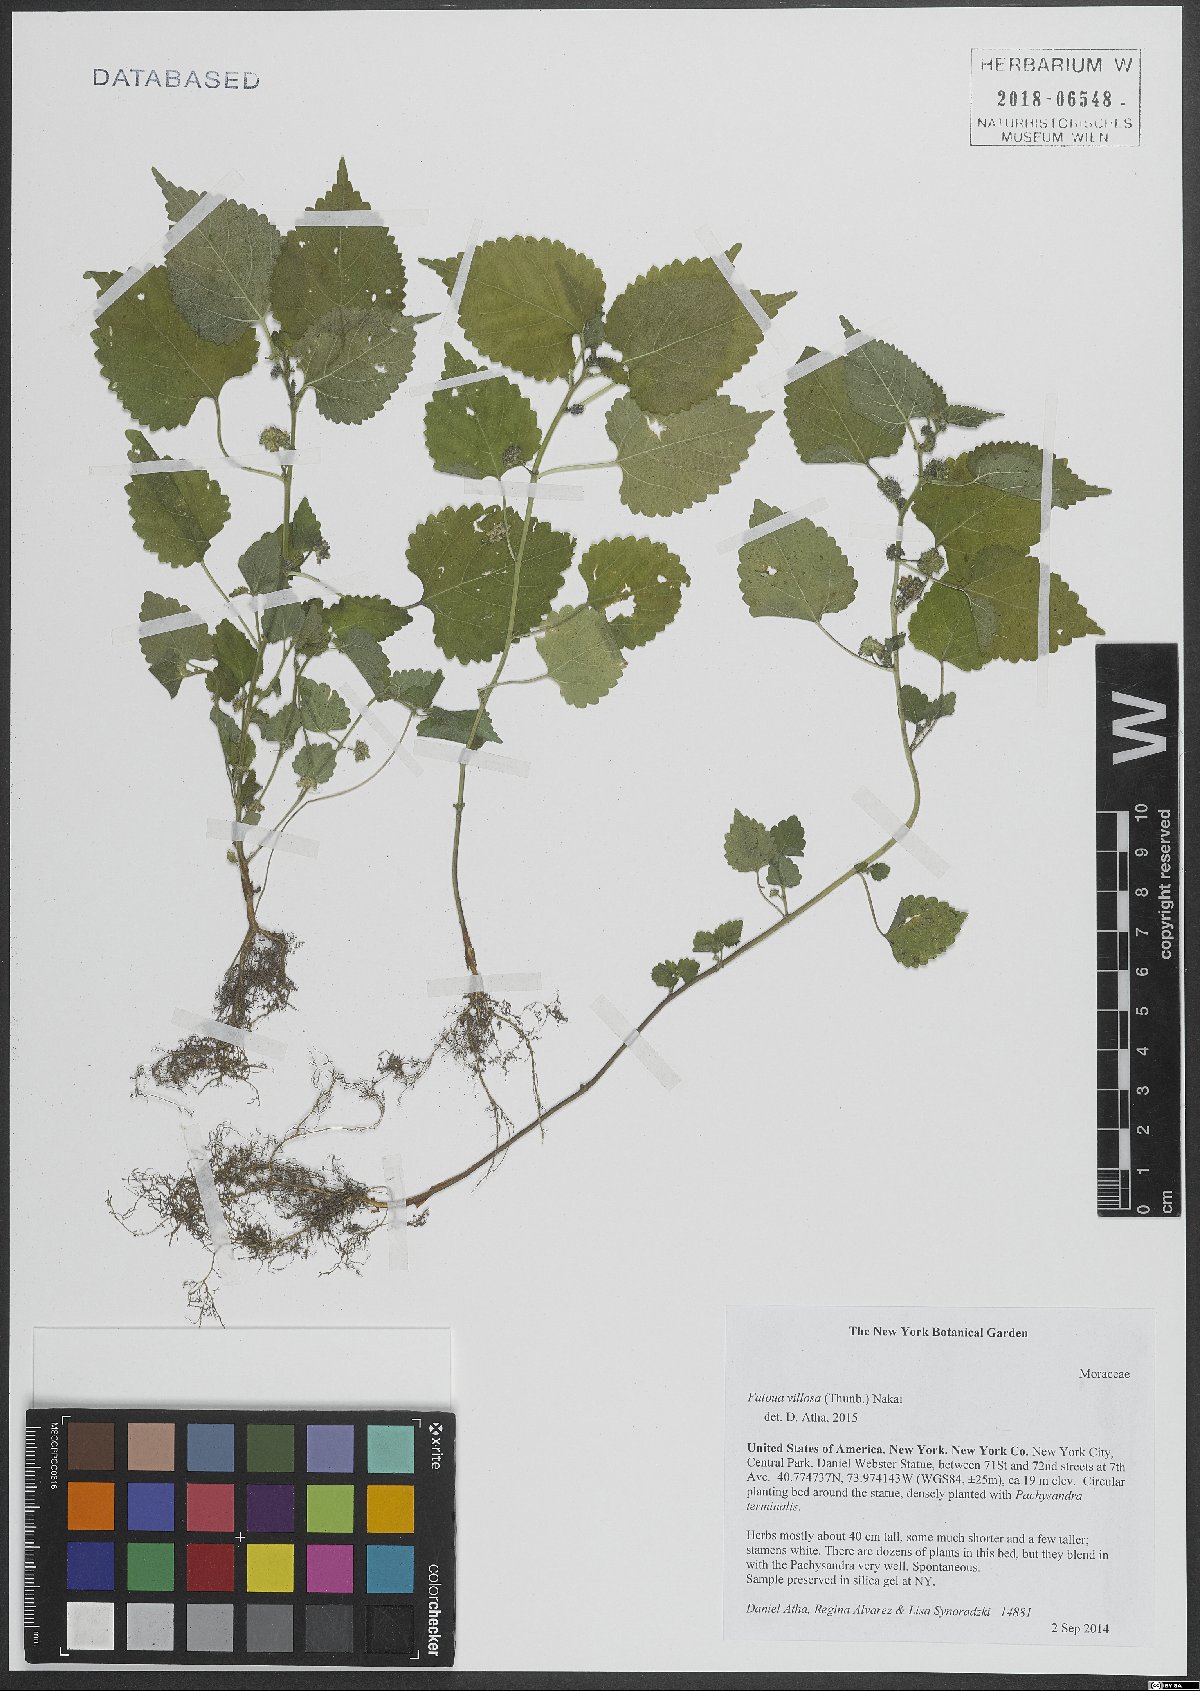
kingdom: Plantae
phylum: Tracheophyta
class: Magnoliopsida
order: Rosales
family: Moraceae
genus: Fatoua
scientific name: Fatoua villosa
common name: Hairy crabweed
